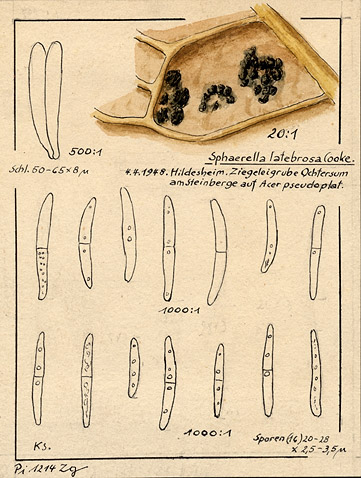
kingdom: Fungi
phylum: Ascomycota
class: Dothideomycetes
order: Mycosphaerellales
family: Mycosphaerellaceae
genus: Mycosphaerella
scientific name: Mycosphaerella latebrosa
